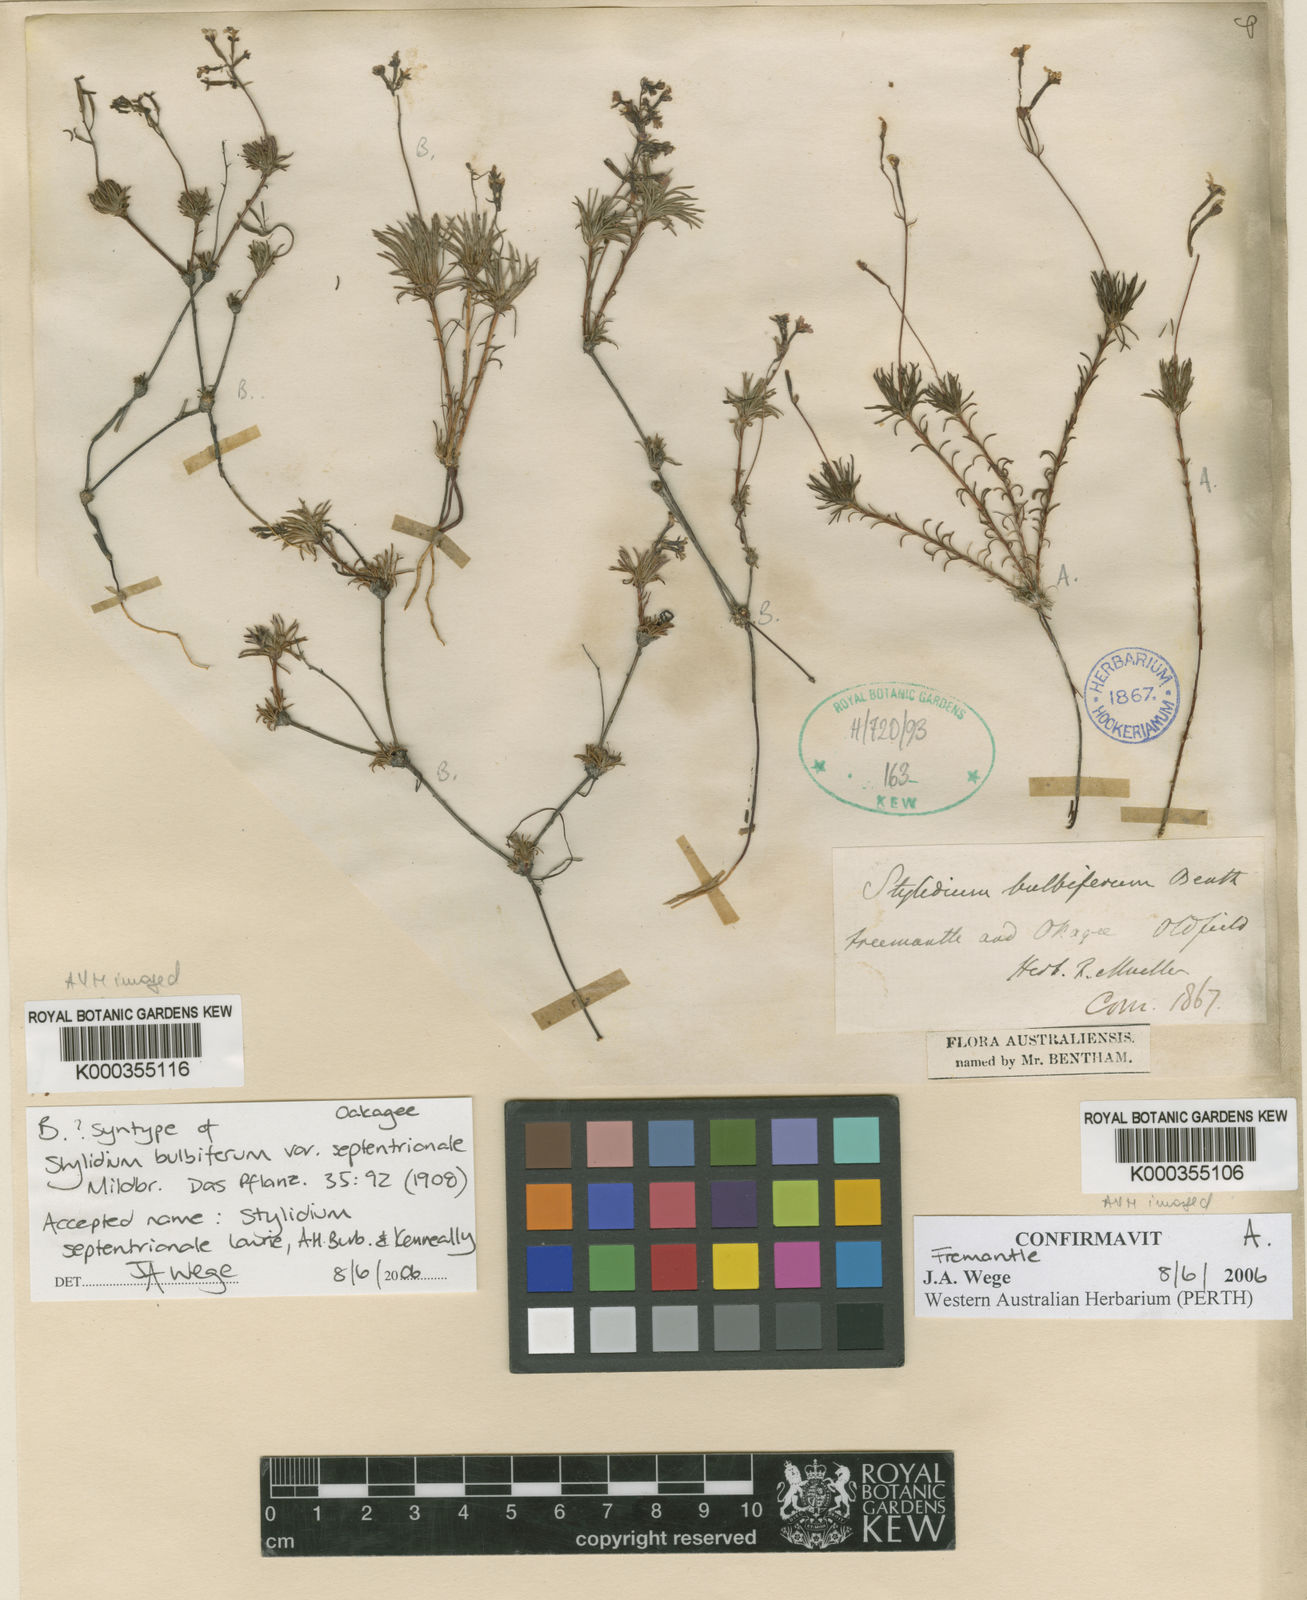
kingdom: Plantae
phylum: Tracheophyta
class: Magnoliopsida
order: Asterales
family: Stylidiaceae
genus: Stylidium
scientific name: Stylidium septentrionale
